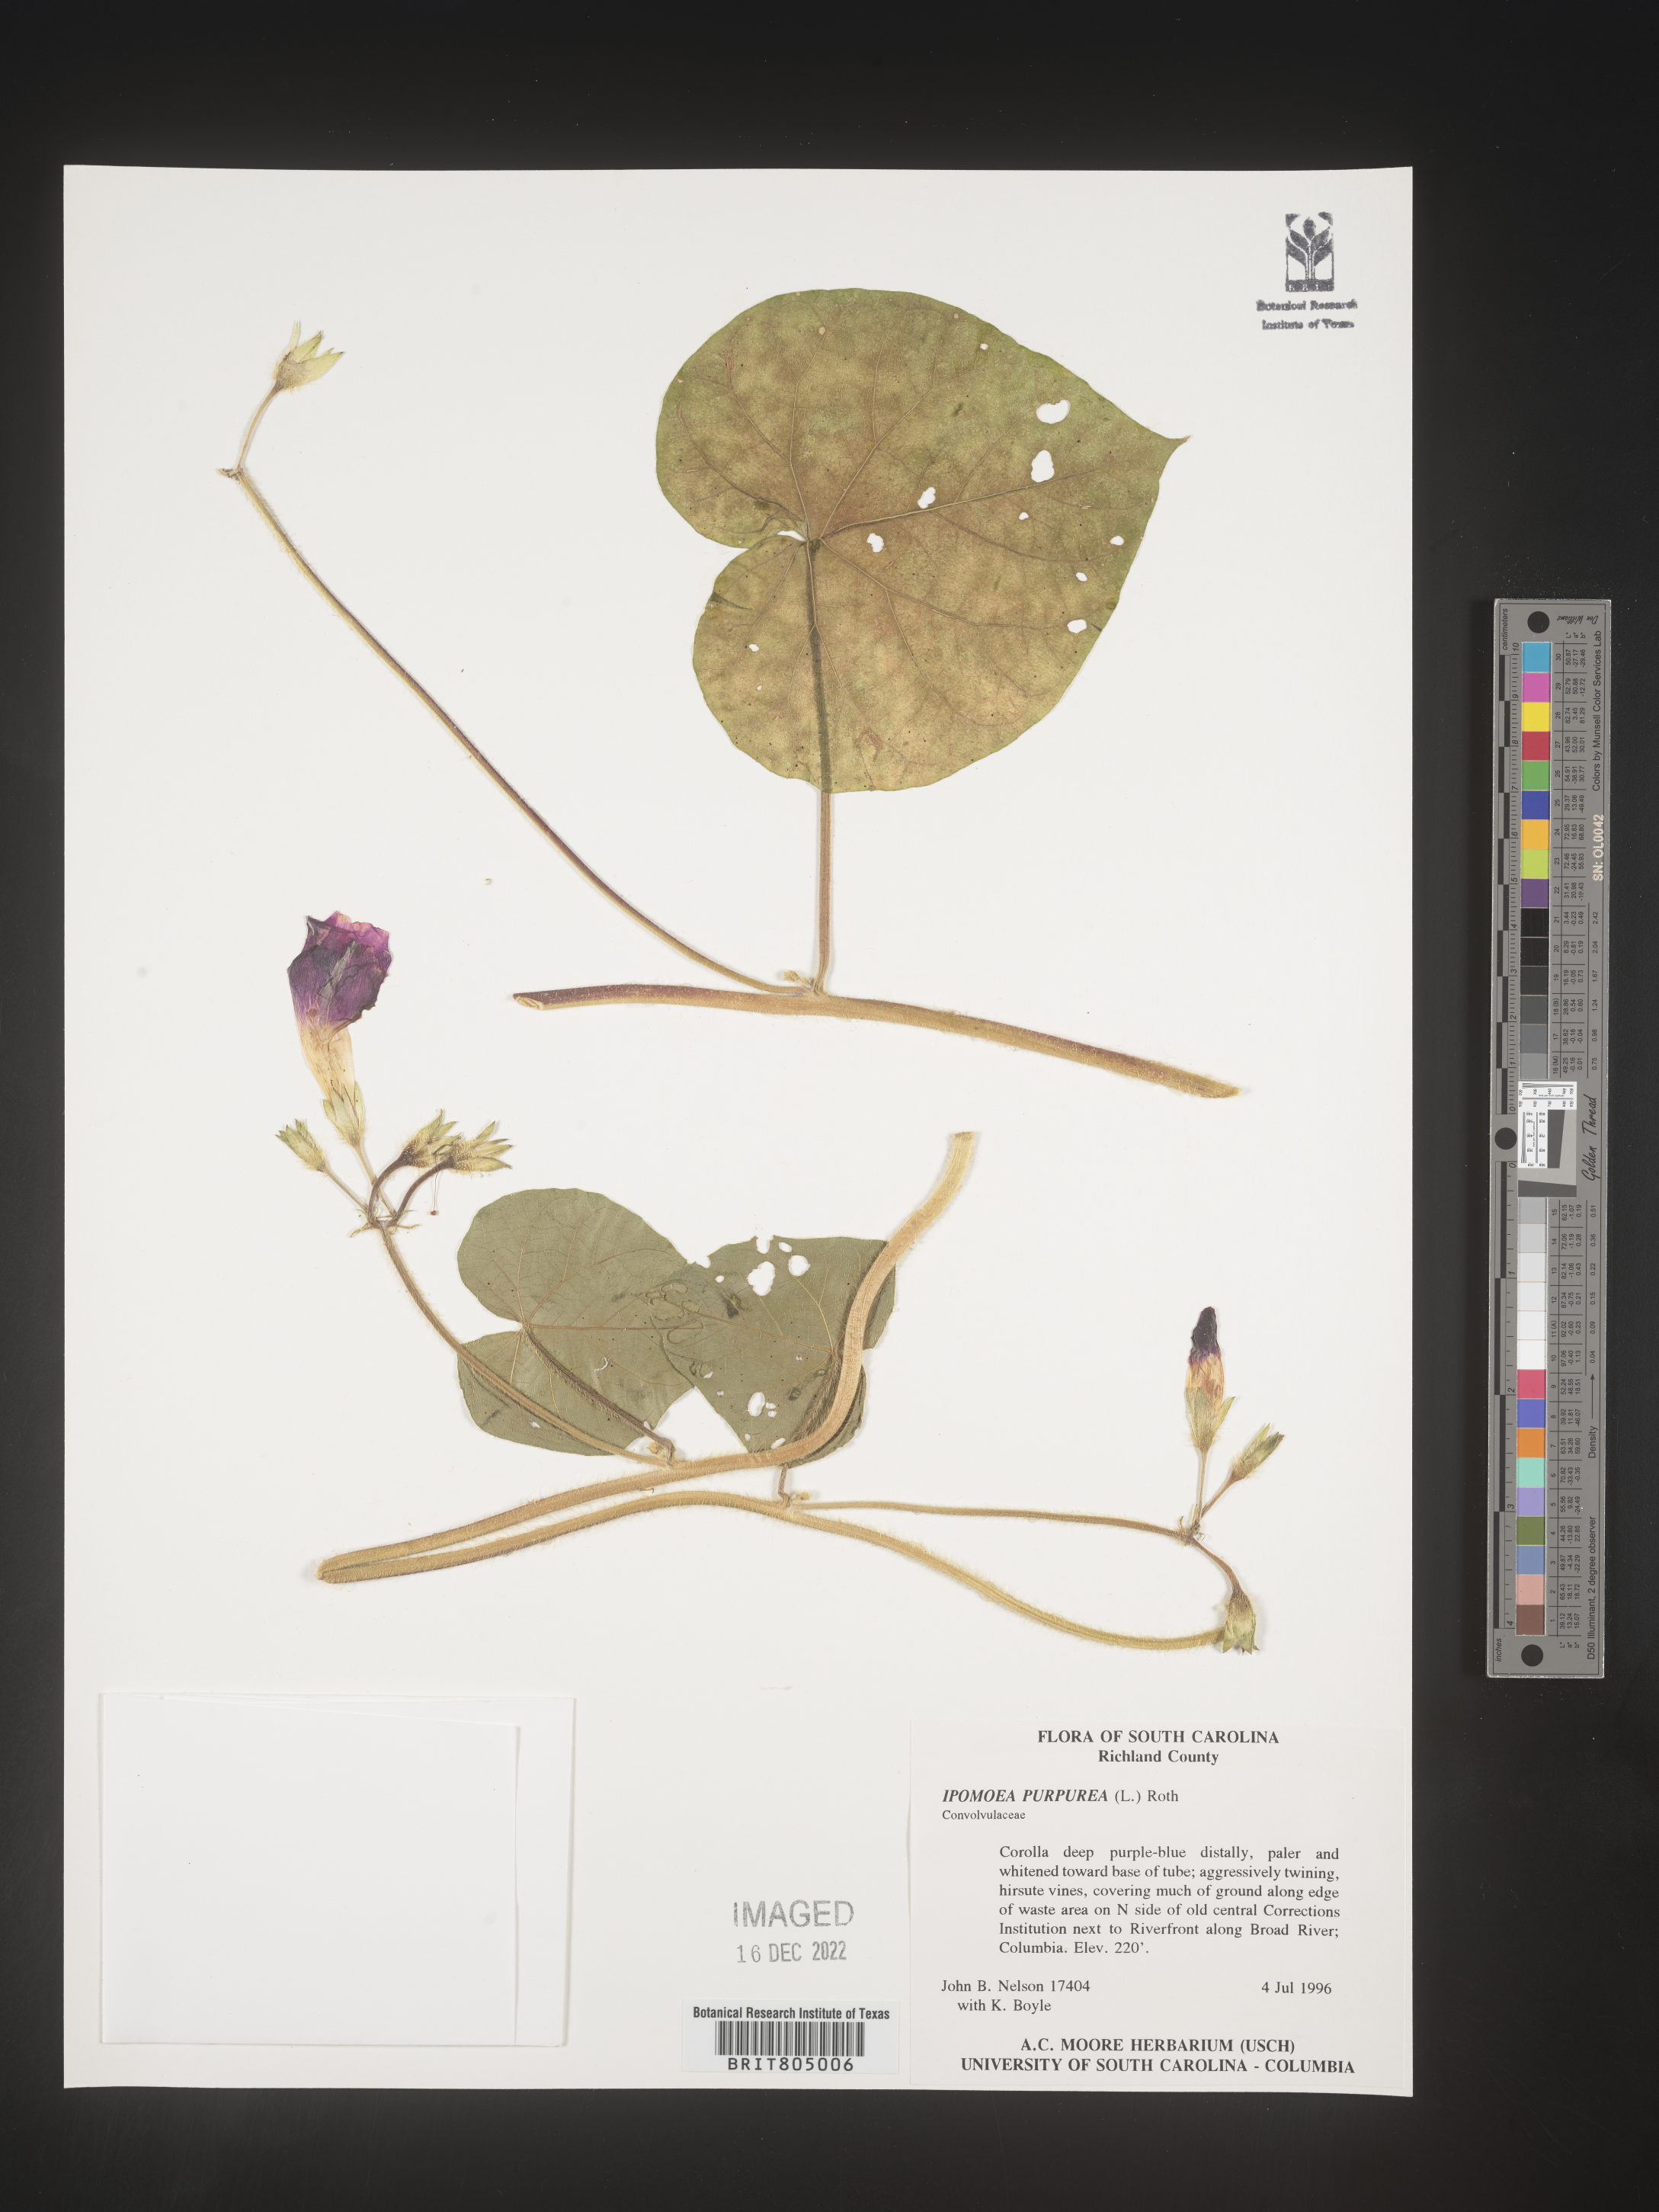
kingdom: Plantae
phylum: Tracheophyta
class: Magnoliopsida
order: Solanales
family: Convolvulaceae
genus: Ipomoea
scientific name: Ipomoea purpurea
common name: Common morning-glory
